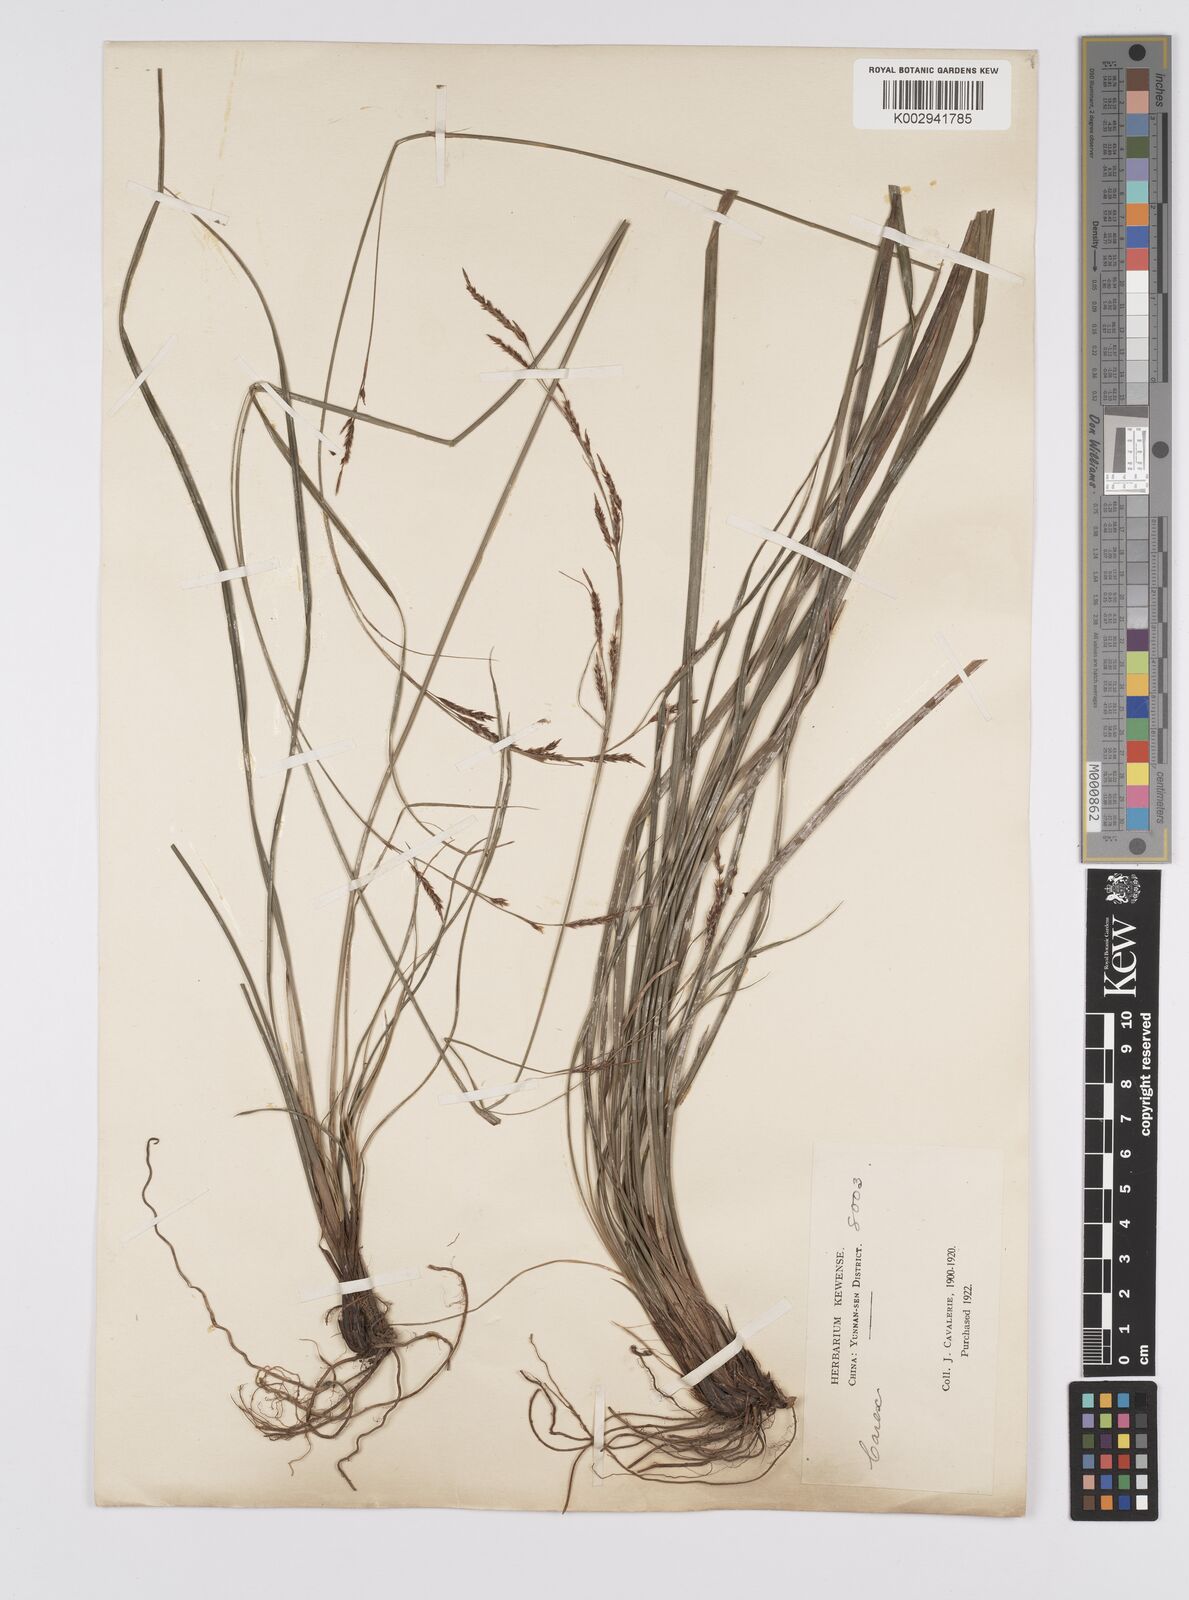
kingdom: Plantae
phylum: Tracheophyta
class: Liliopsida
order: Poales
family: Cyperaceae
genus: Carex
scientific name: Carex brunnea
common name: Greater brown sedge
